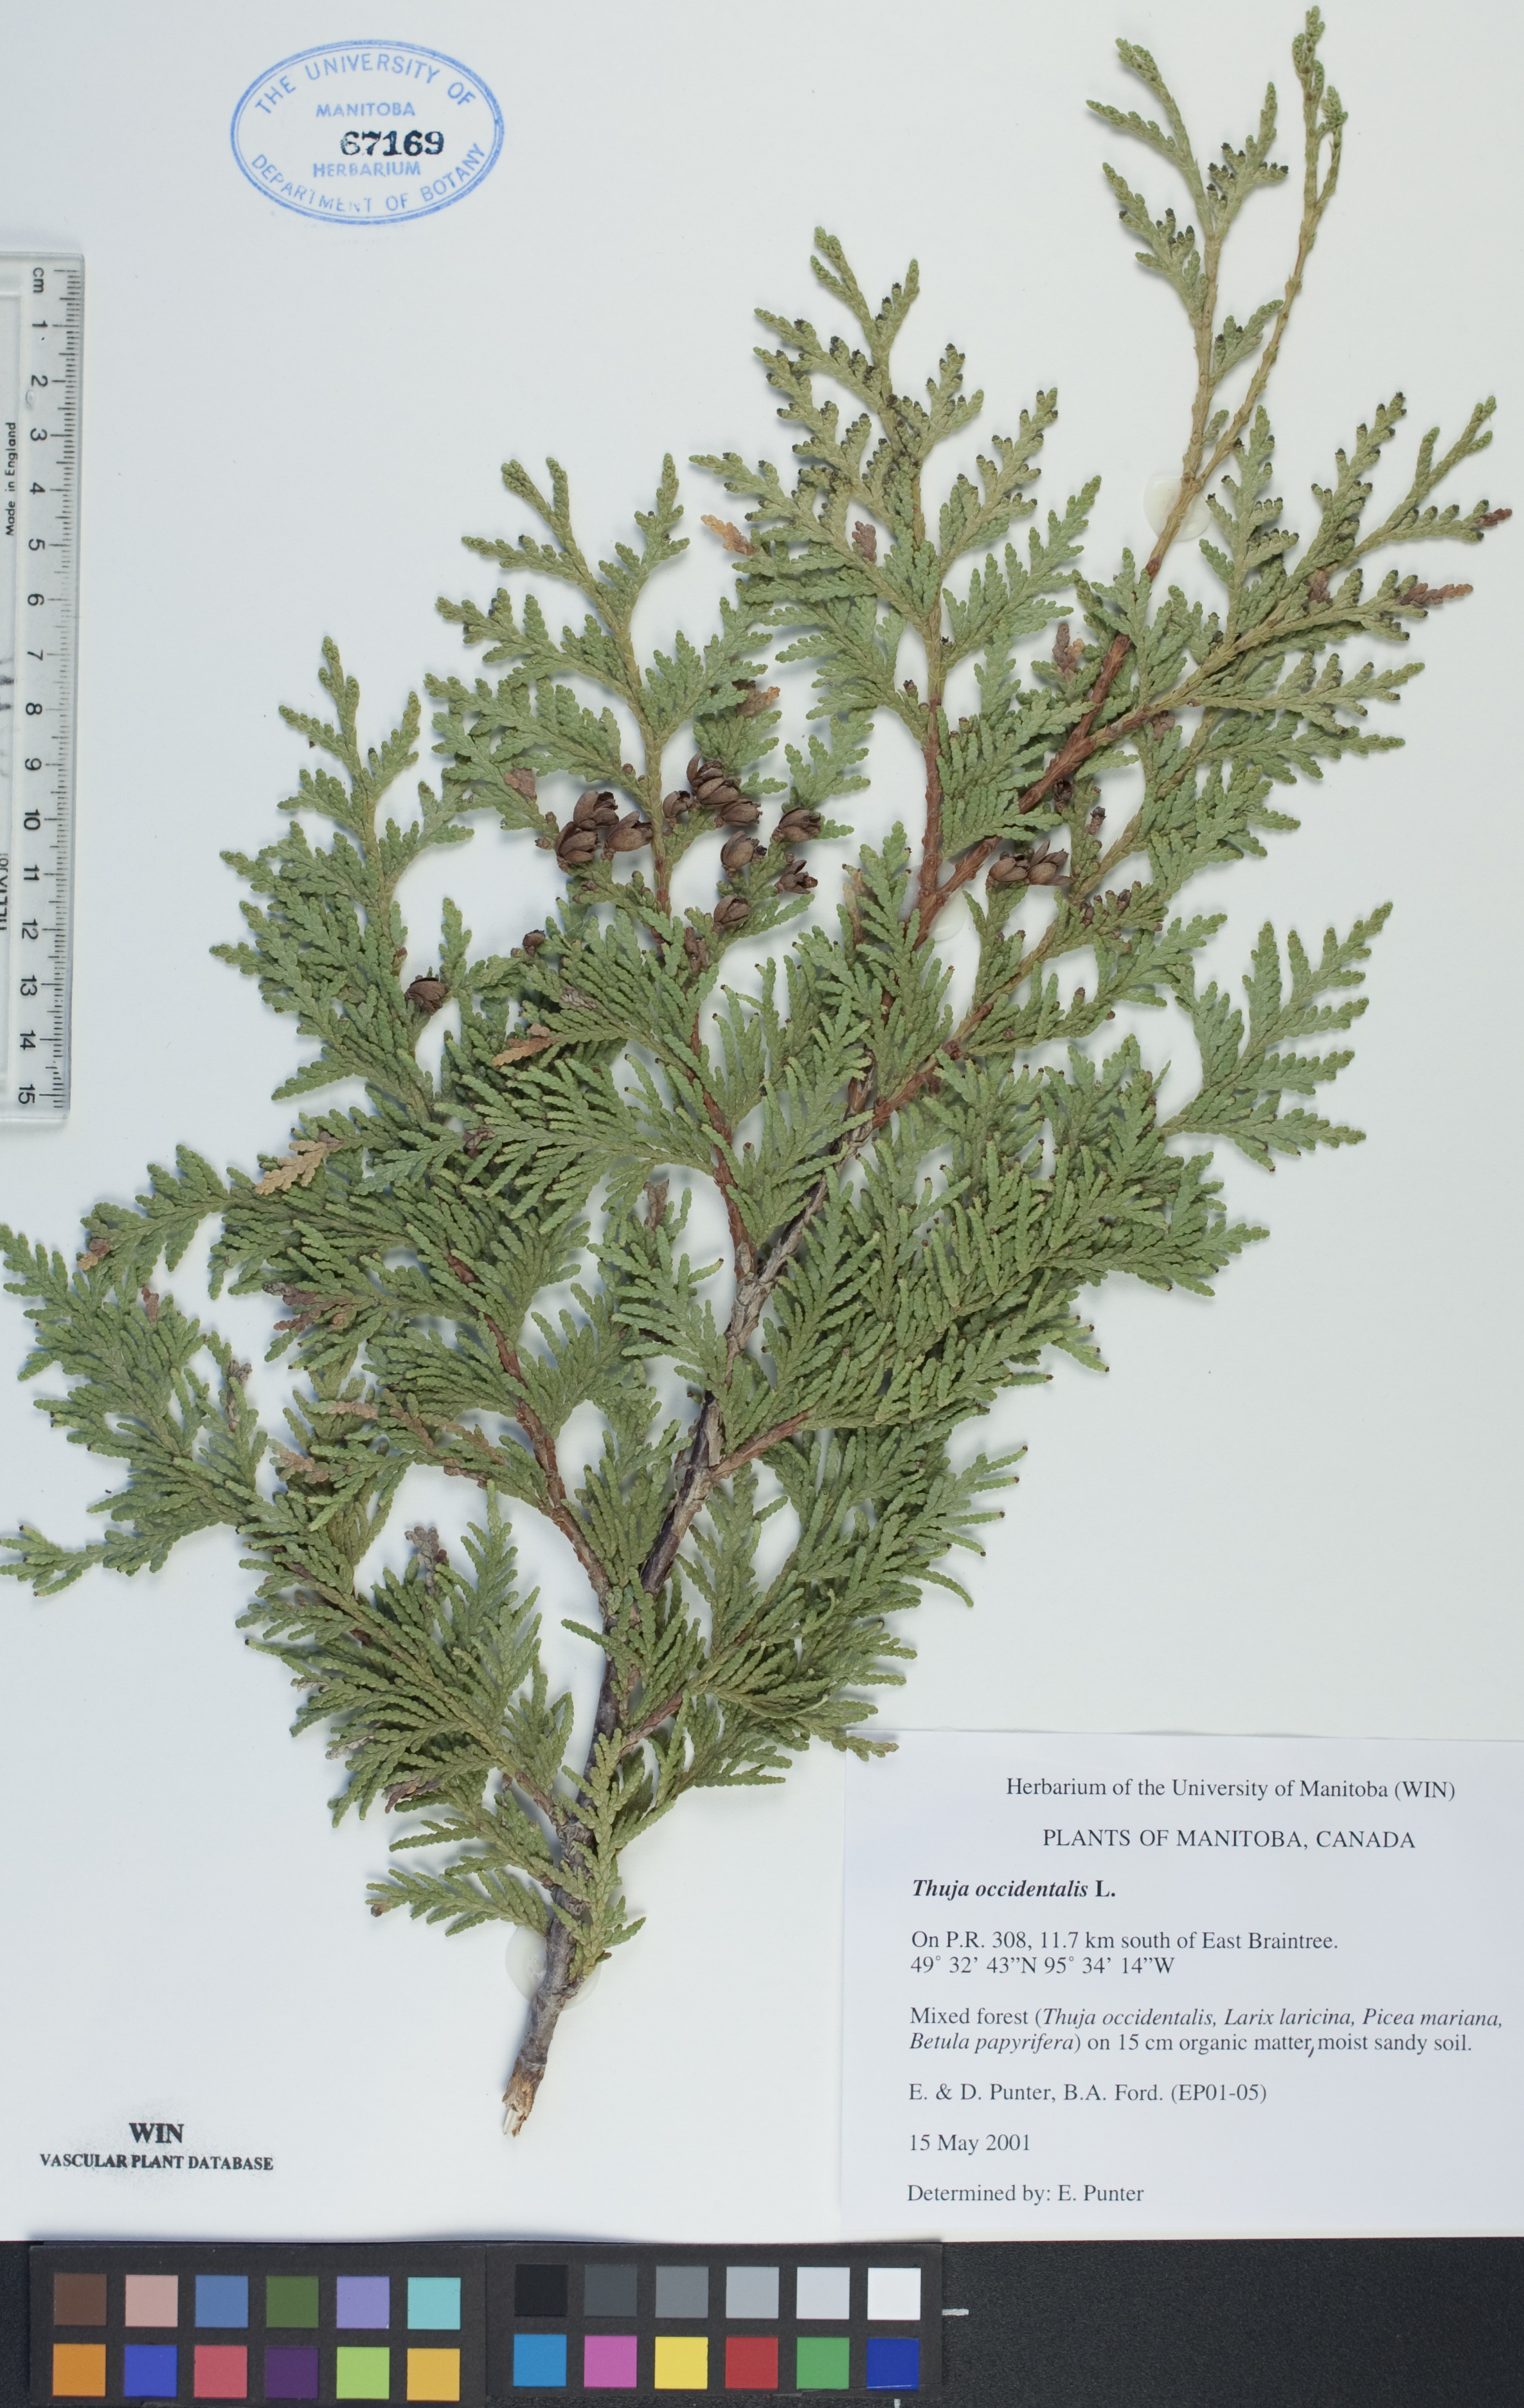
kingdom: Plantae
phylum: Tracheophyta
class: Pinopsida
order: Pinales
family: Cupressaceae
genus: Thuja
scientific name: Thuja occidentalis
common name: Northern white-cedar
